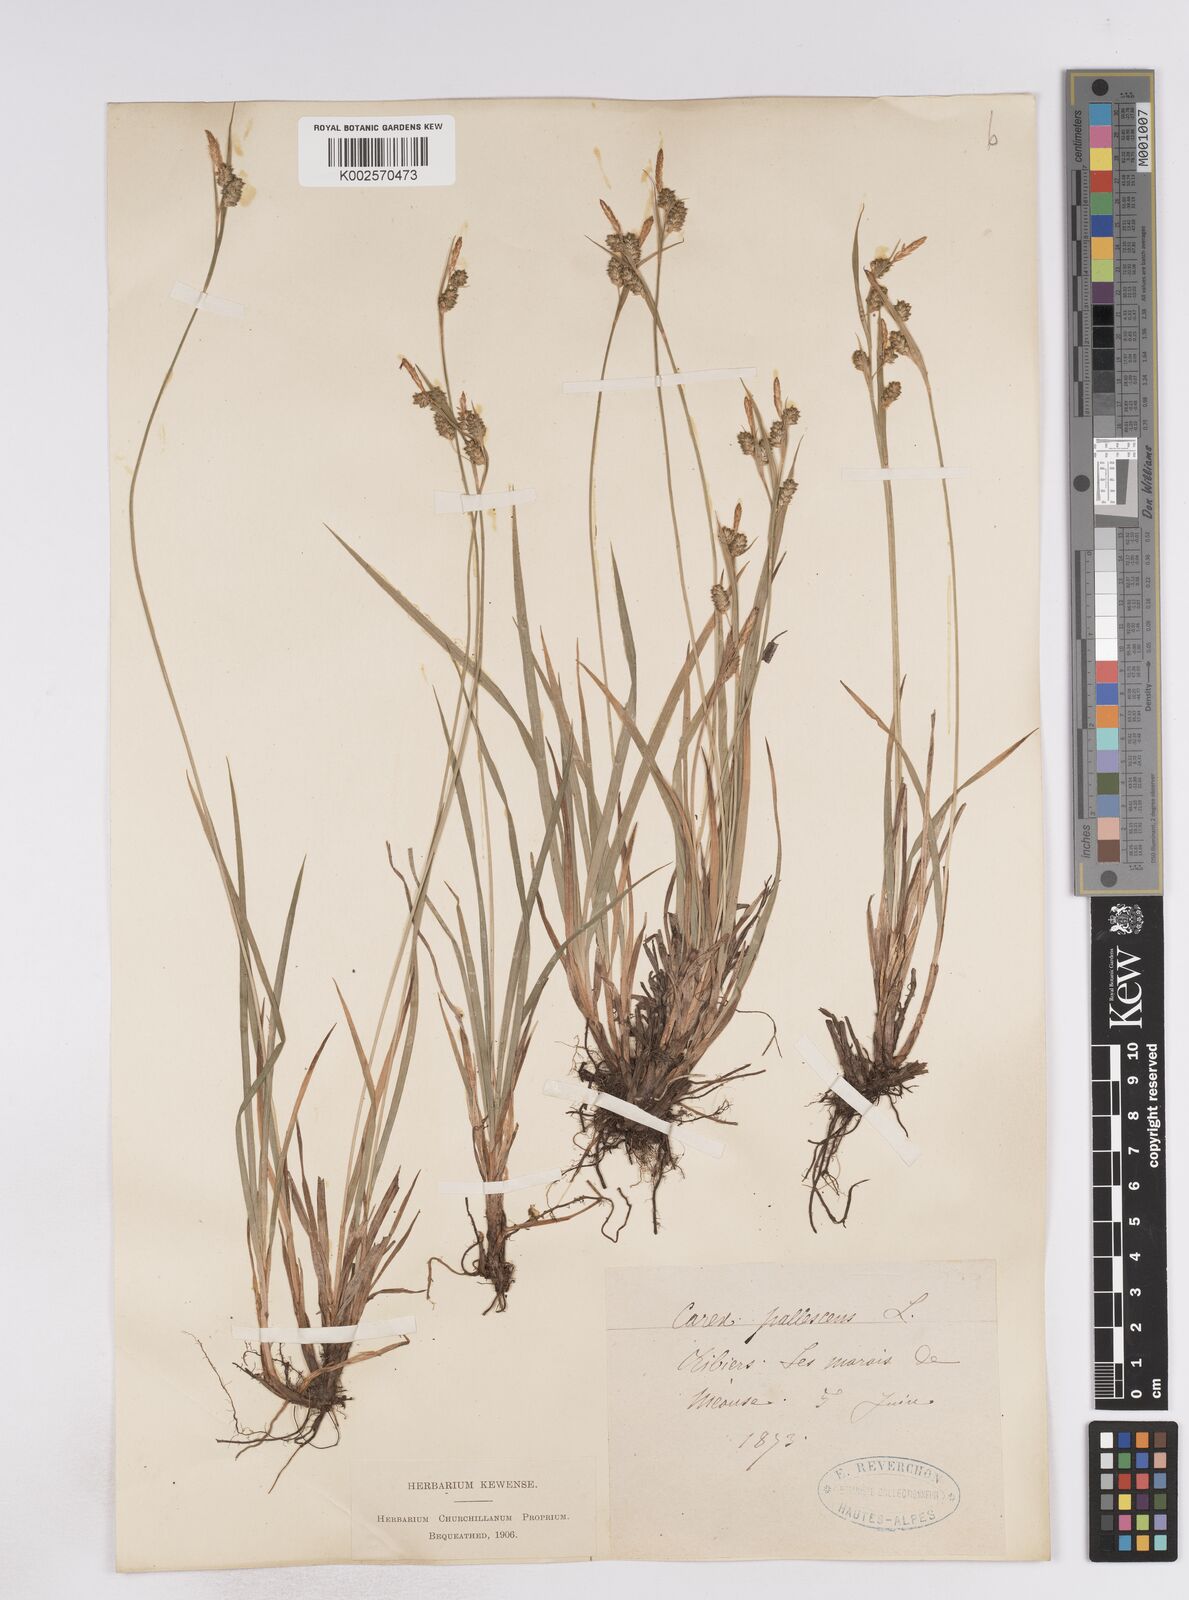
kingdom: Plantae
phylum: Tracheophyta
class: Liliopsida
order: Poales
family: Cyperaceae
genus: Carex
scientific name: Carex pallescens
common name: Pale sedge
